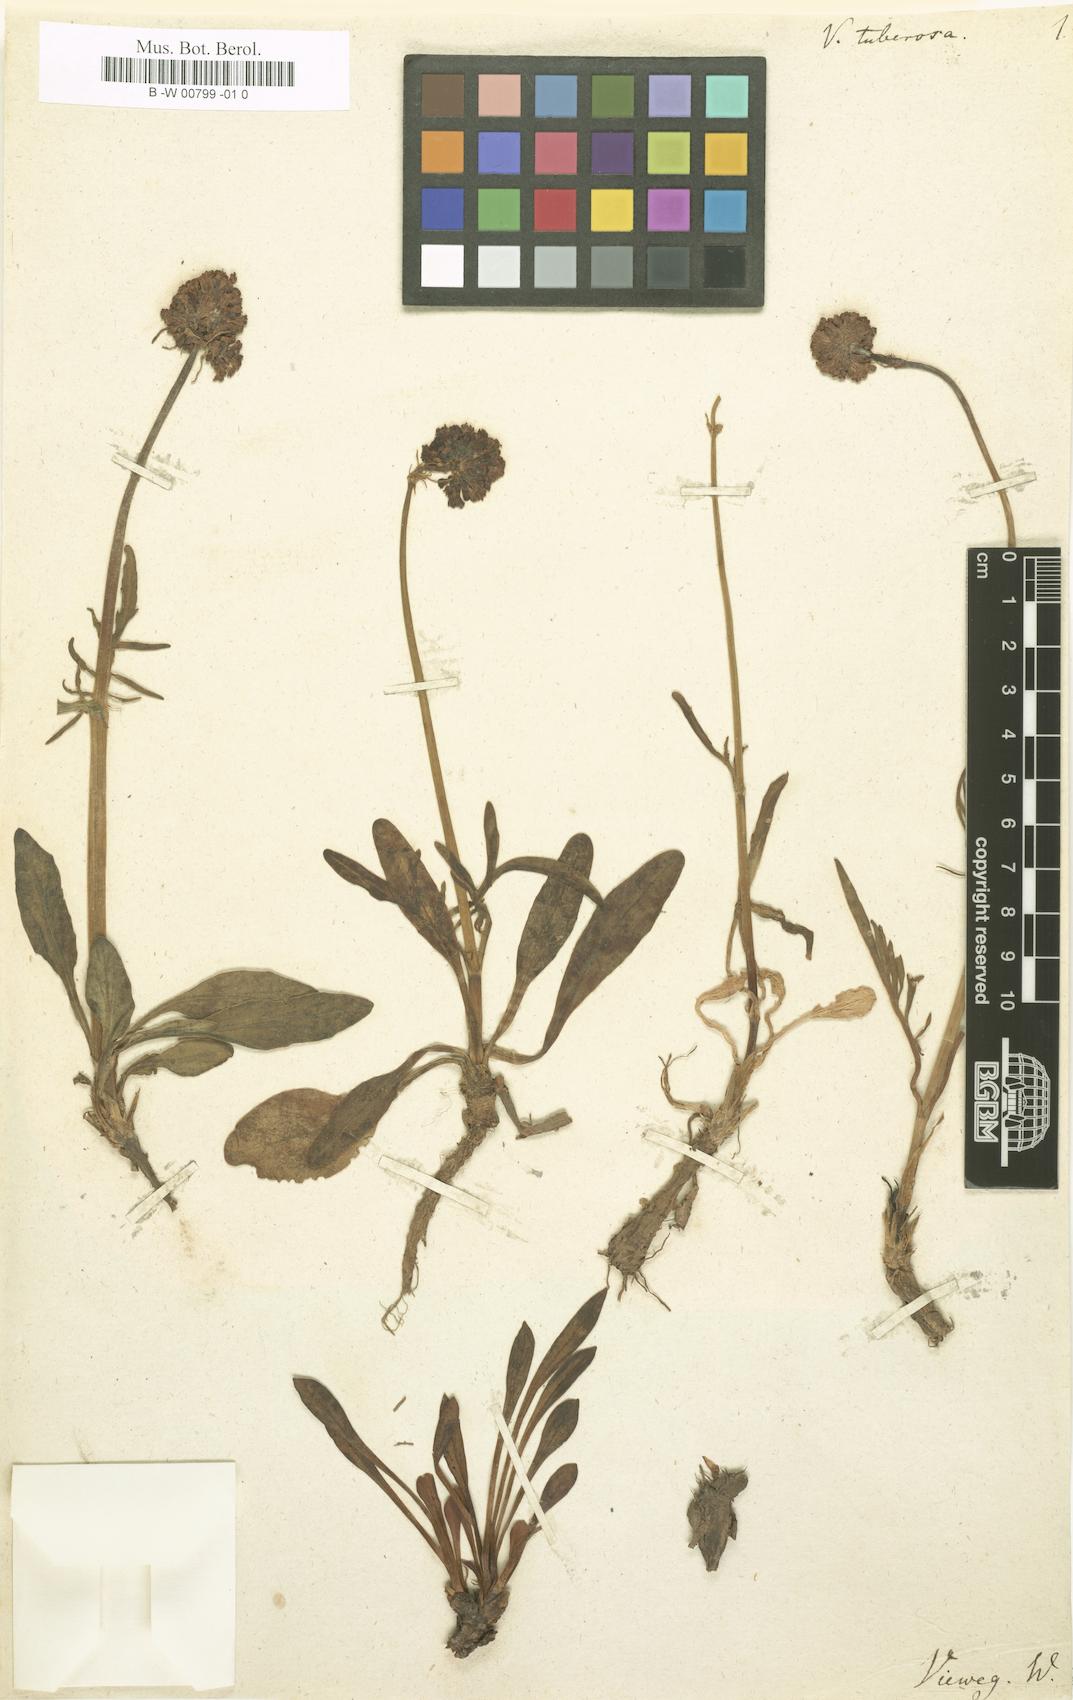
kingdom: Plantae
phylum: Tracheophyta
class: Magnoliopsida
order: Dipsacales
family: Caprifoliaceae
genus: Valeriana
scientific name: Valeriana tuberosa
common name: Tuberous valerian
